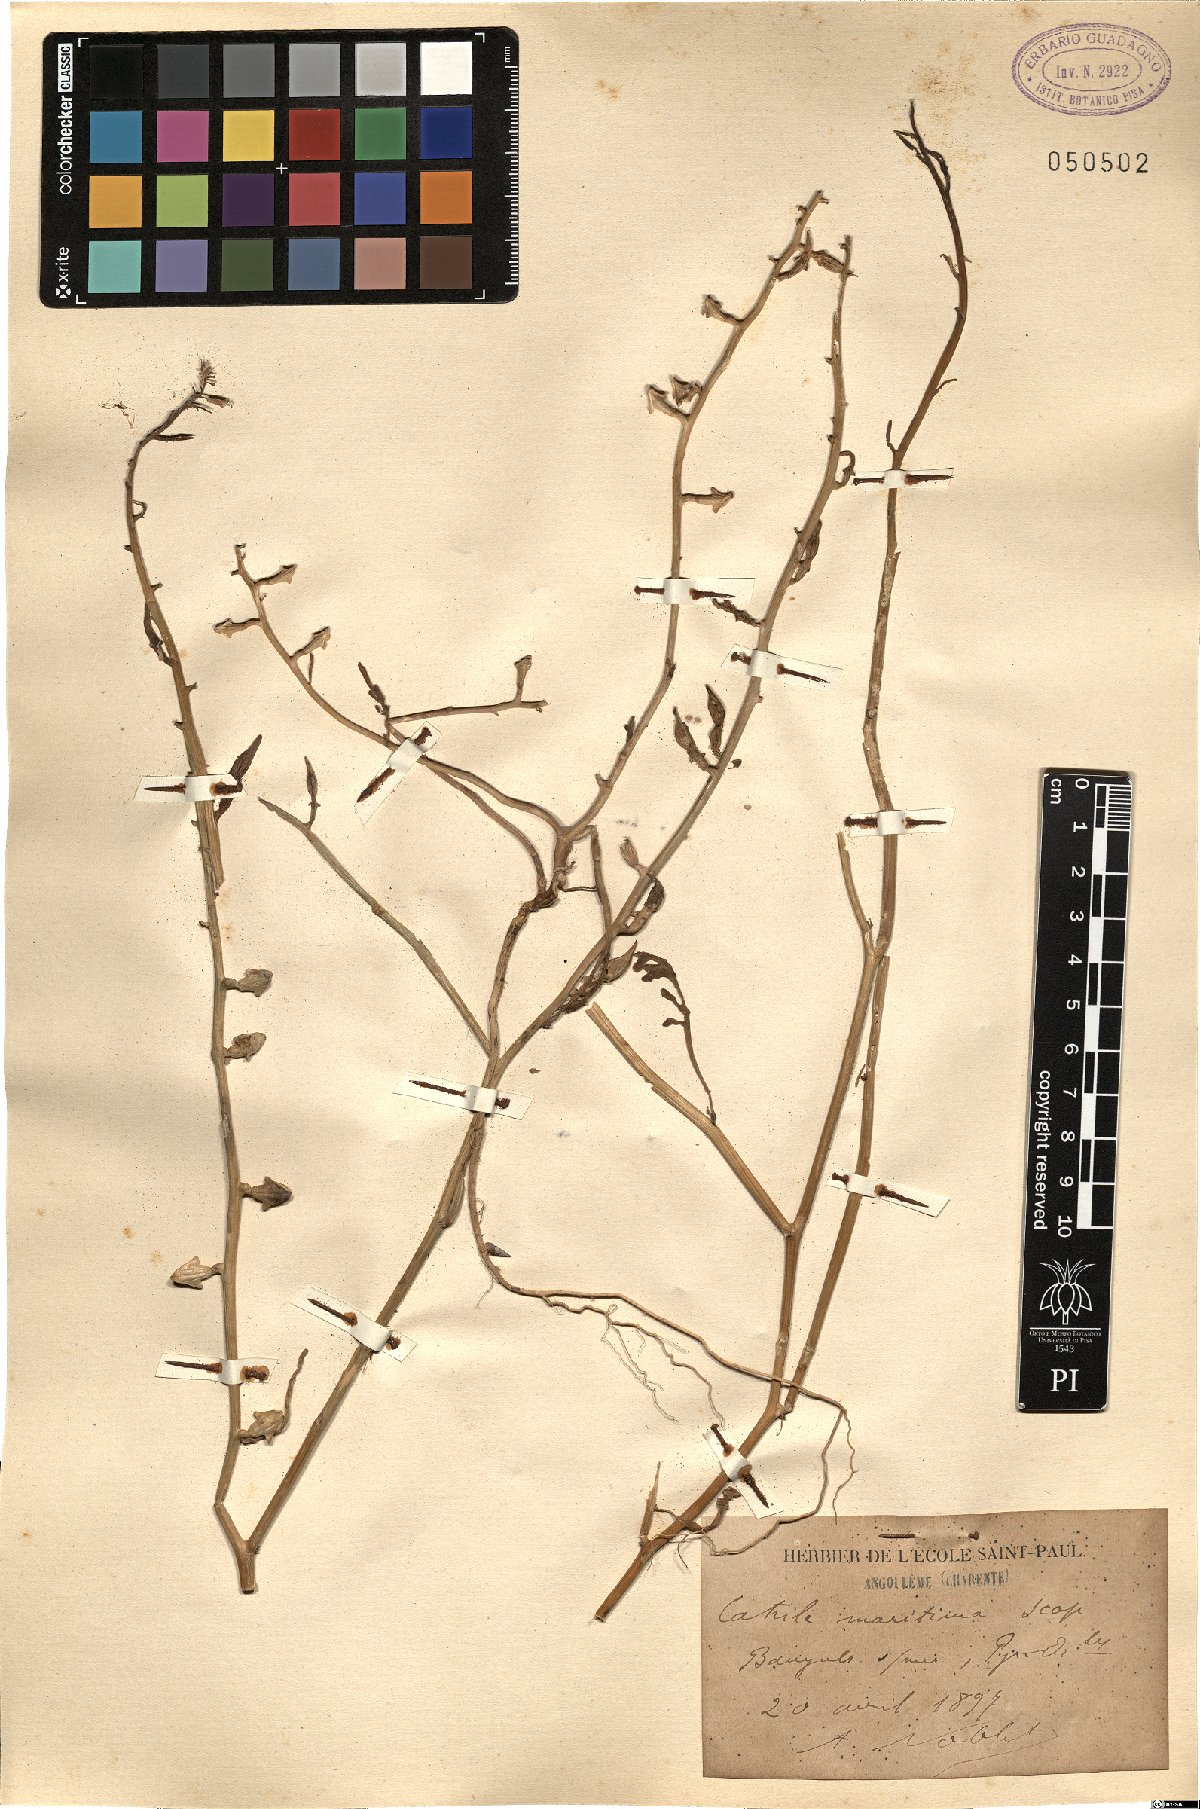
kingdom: Plantae
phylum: Tracheophyta
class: Magnoliopsida
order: Brassicales
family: Brassicaceae
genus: Cakile
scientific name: Cakile maritima
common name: Sea rocket
